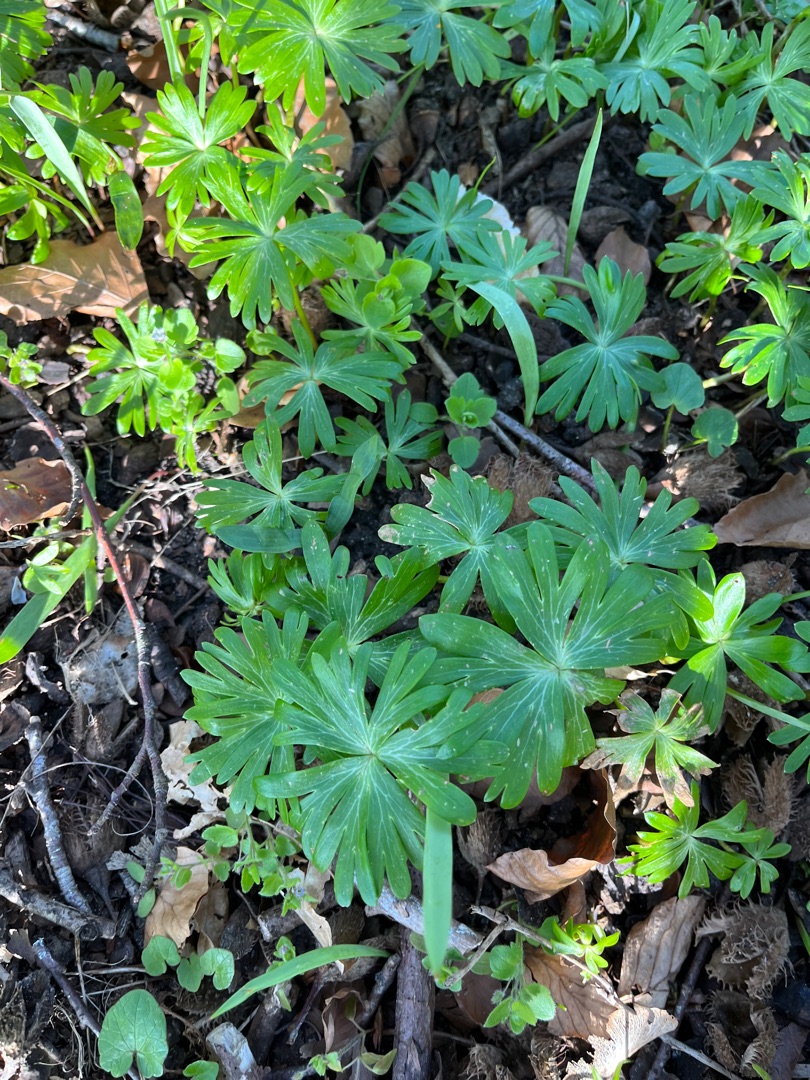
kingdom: Plantae
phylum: Tracheophyta
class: Magnoliopsida
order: Ranunculales
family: Ranunculaceae
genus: Eranthis
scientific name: Eranthis hyemalis
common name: Erantis
